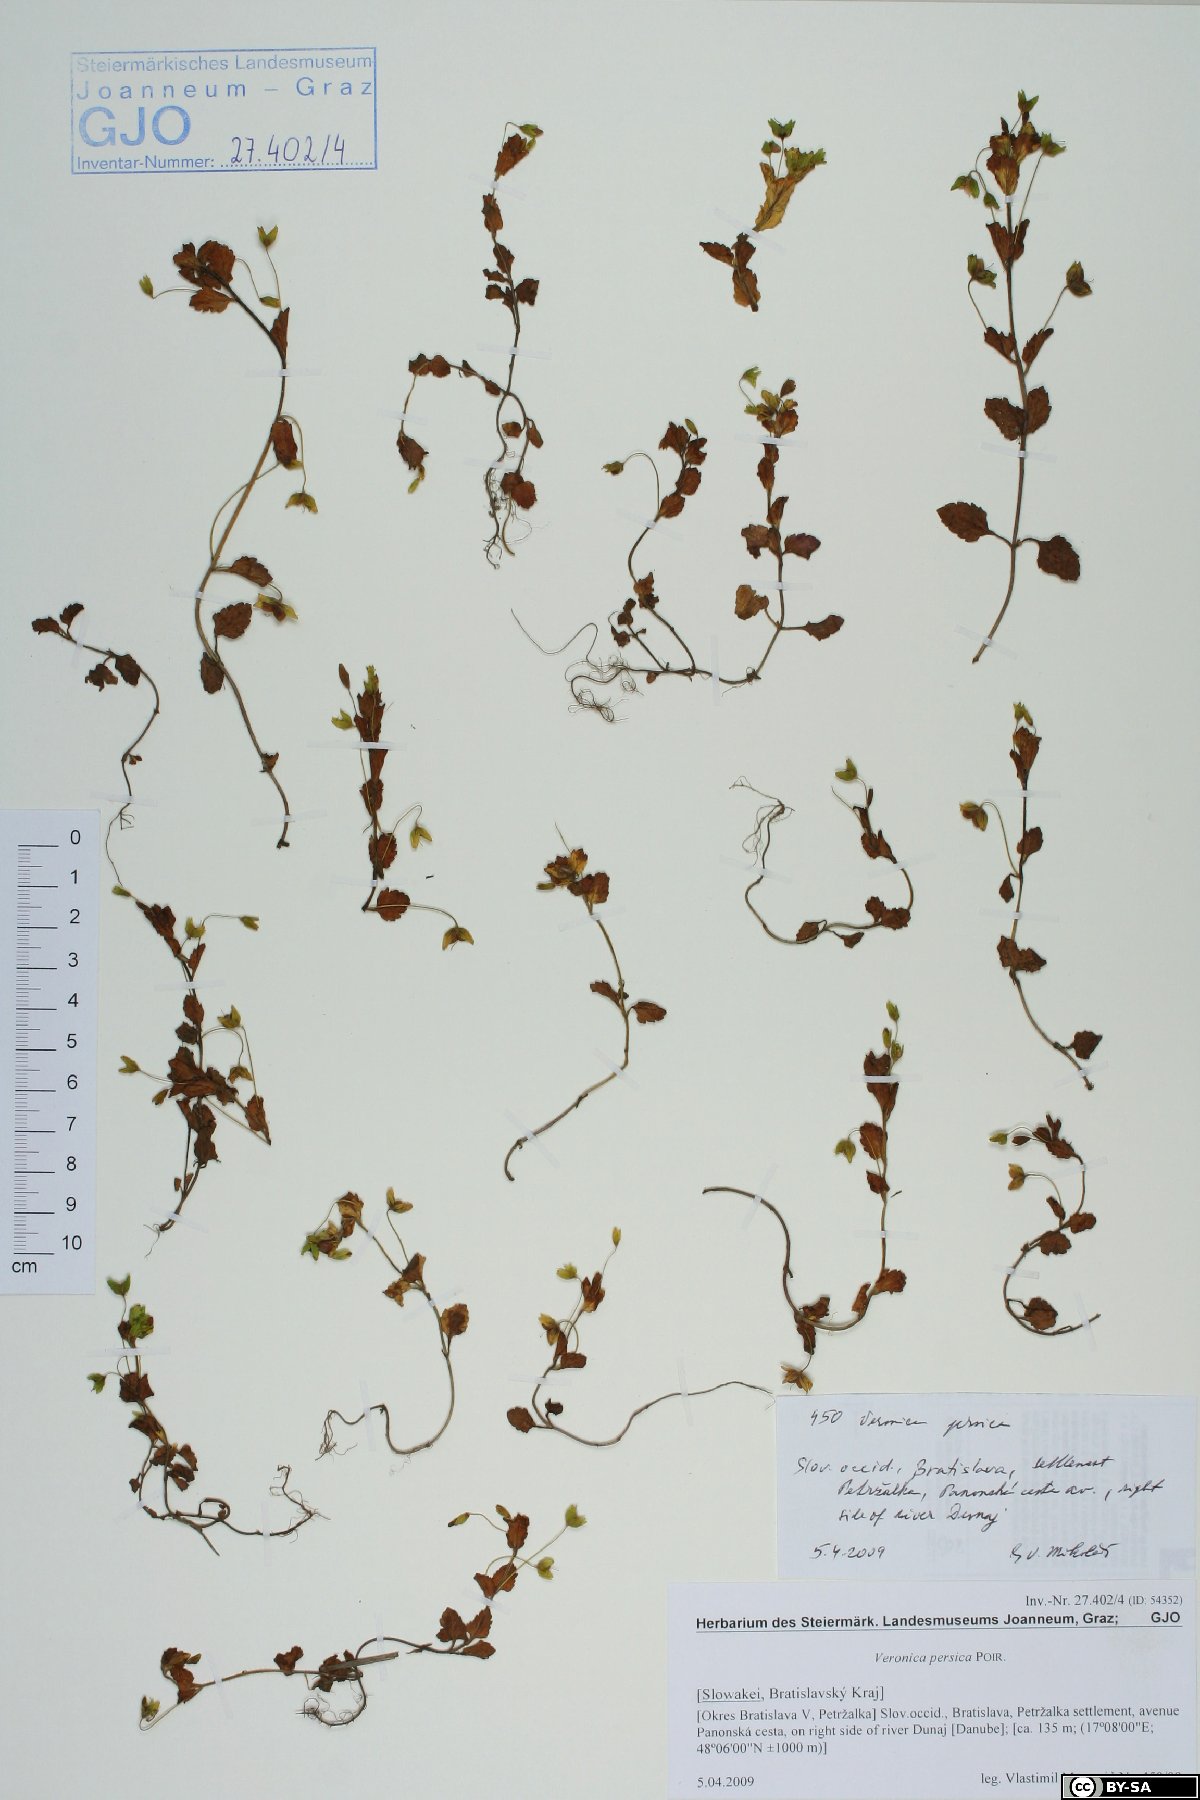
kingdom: Plantae
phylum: Tracheophyta
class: Magnoliopsida
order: Lamiales
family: Plantaginaceae
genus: Veronica
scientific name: Veronica persica
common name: Common field-speedwell
